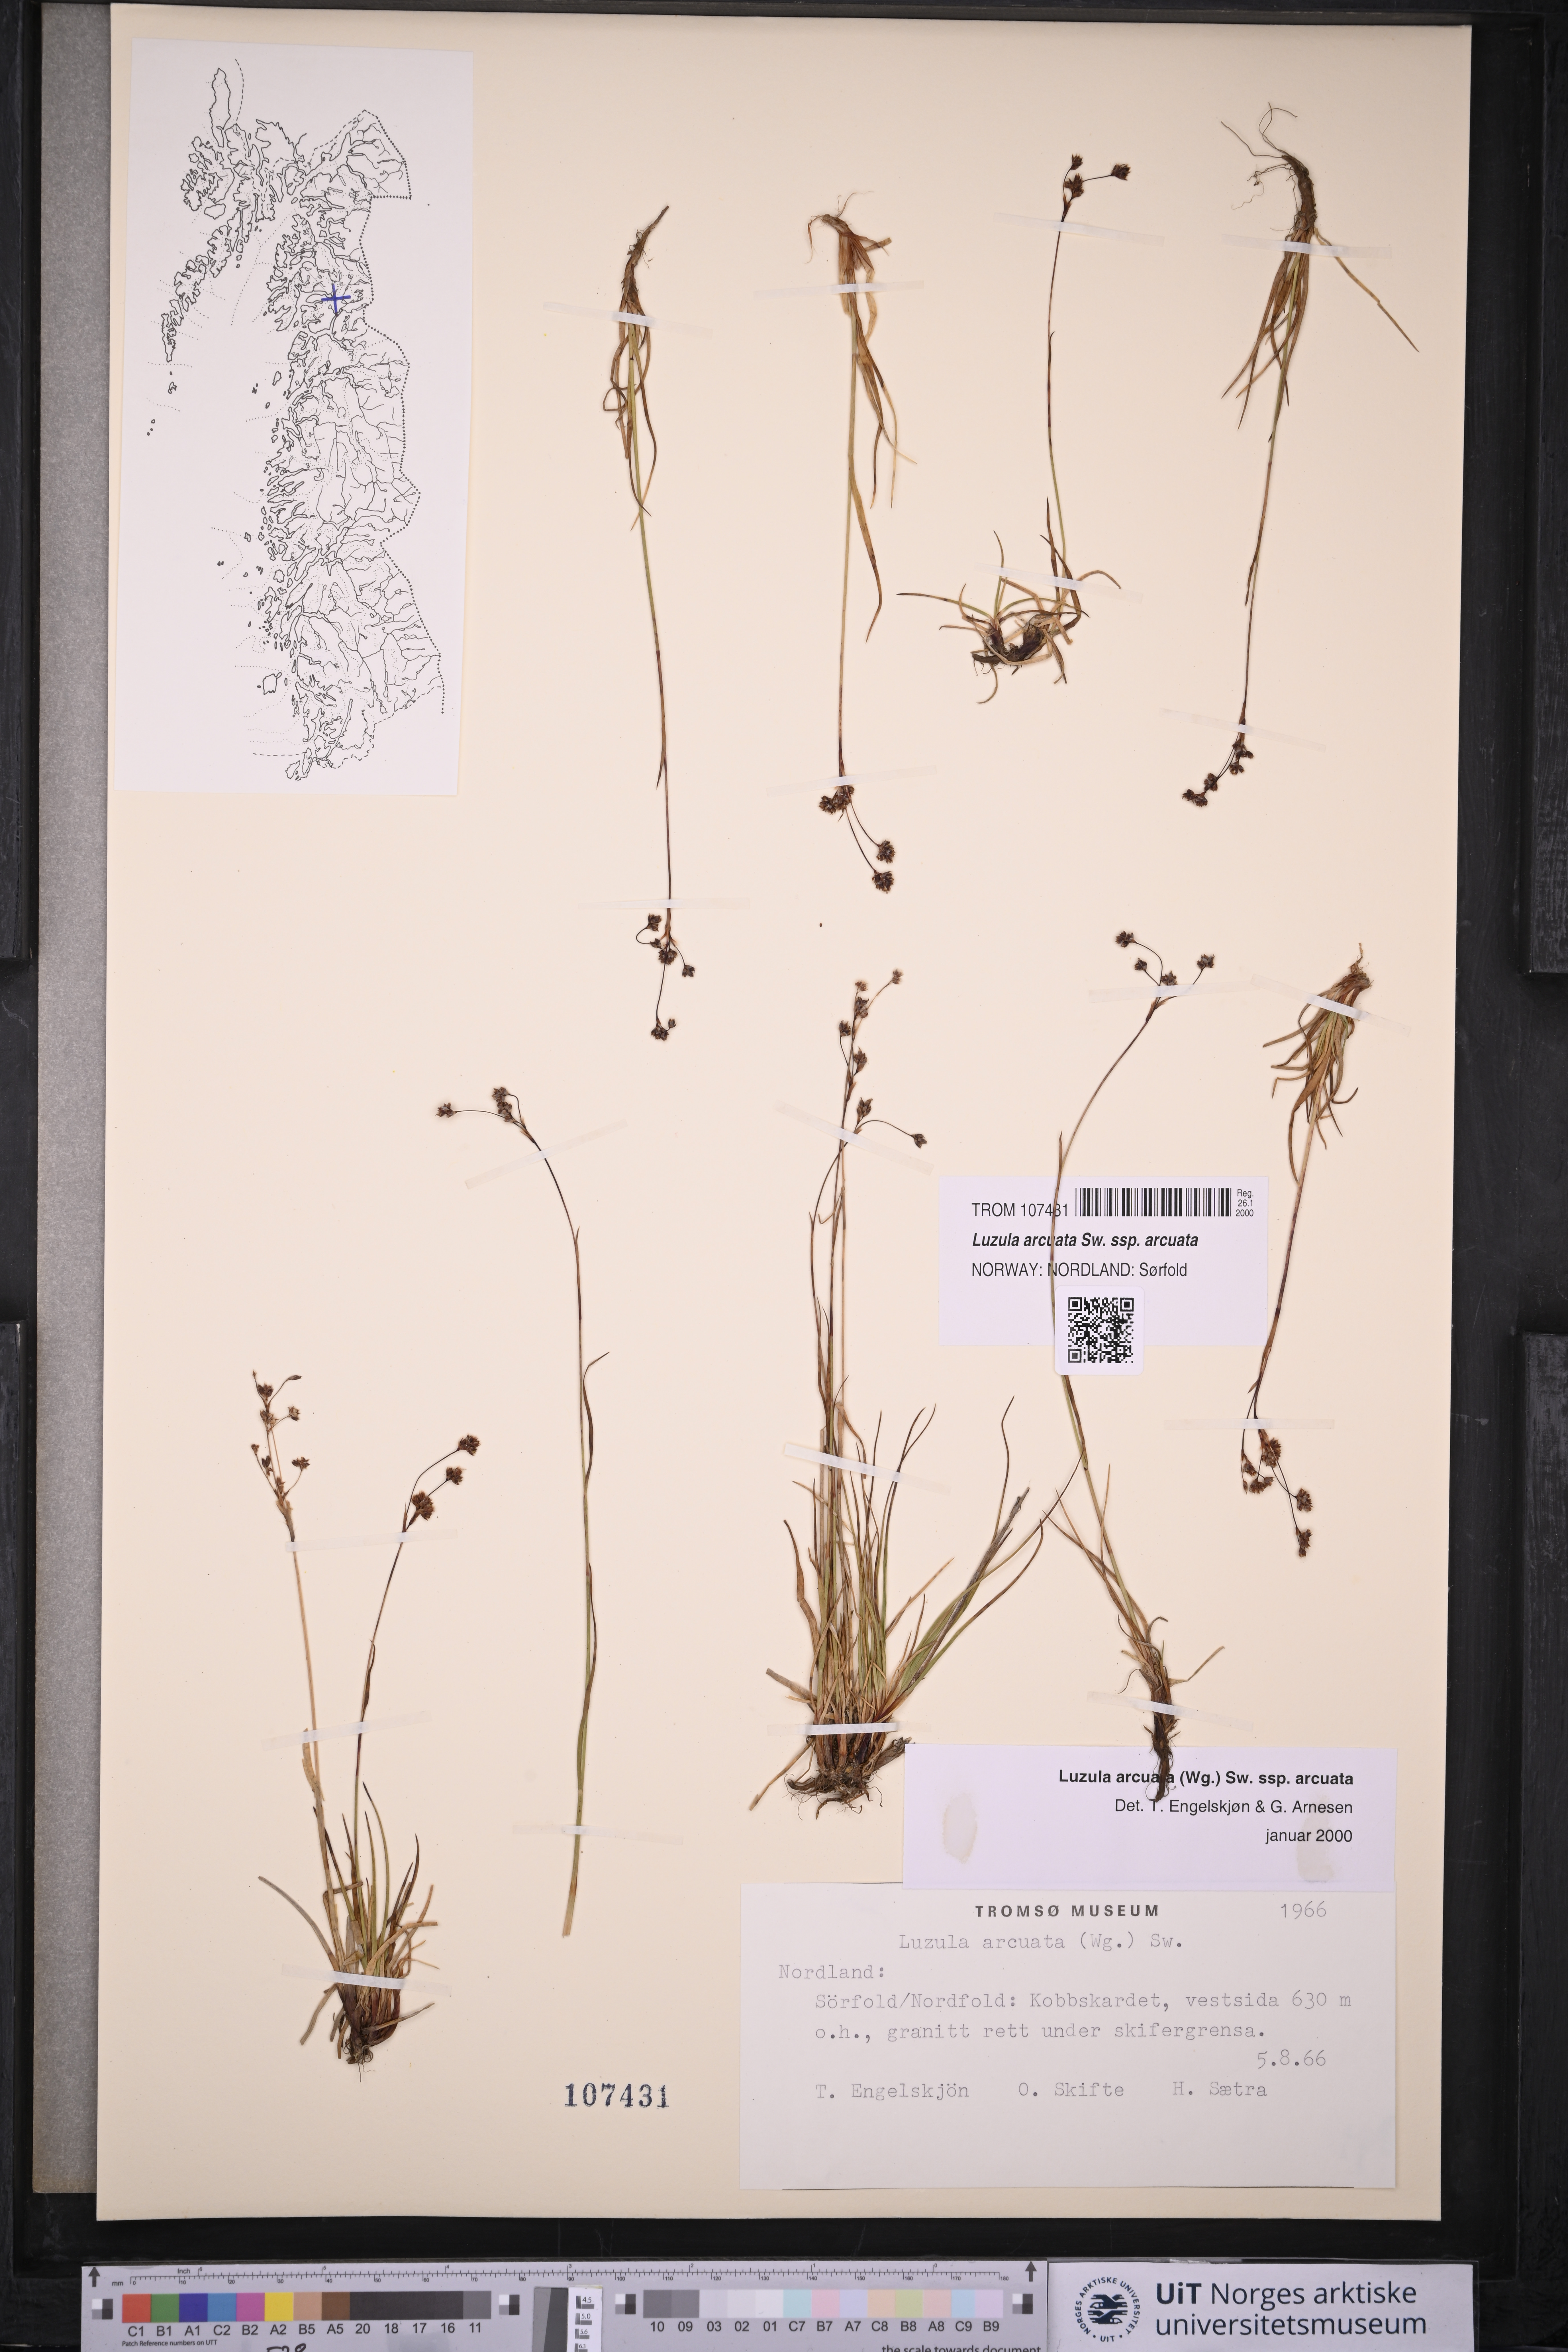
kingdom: Plantae
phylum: Tracheophyta
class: Liliopsida
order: Poales
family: Juncaceae
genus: Luzula
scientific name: Luzula arcuata
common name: Curved wood-rush
